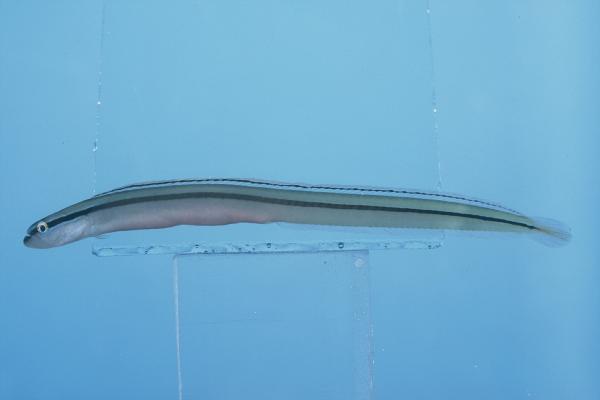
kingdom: Animalia
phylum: Chordata
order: Perciformes
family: Microdesmidae
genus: Gunnellichthys
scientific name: Gunnellichthys pleurotaenia
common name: Black-stripe worm-goby
